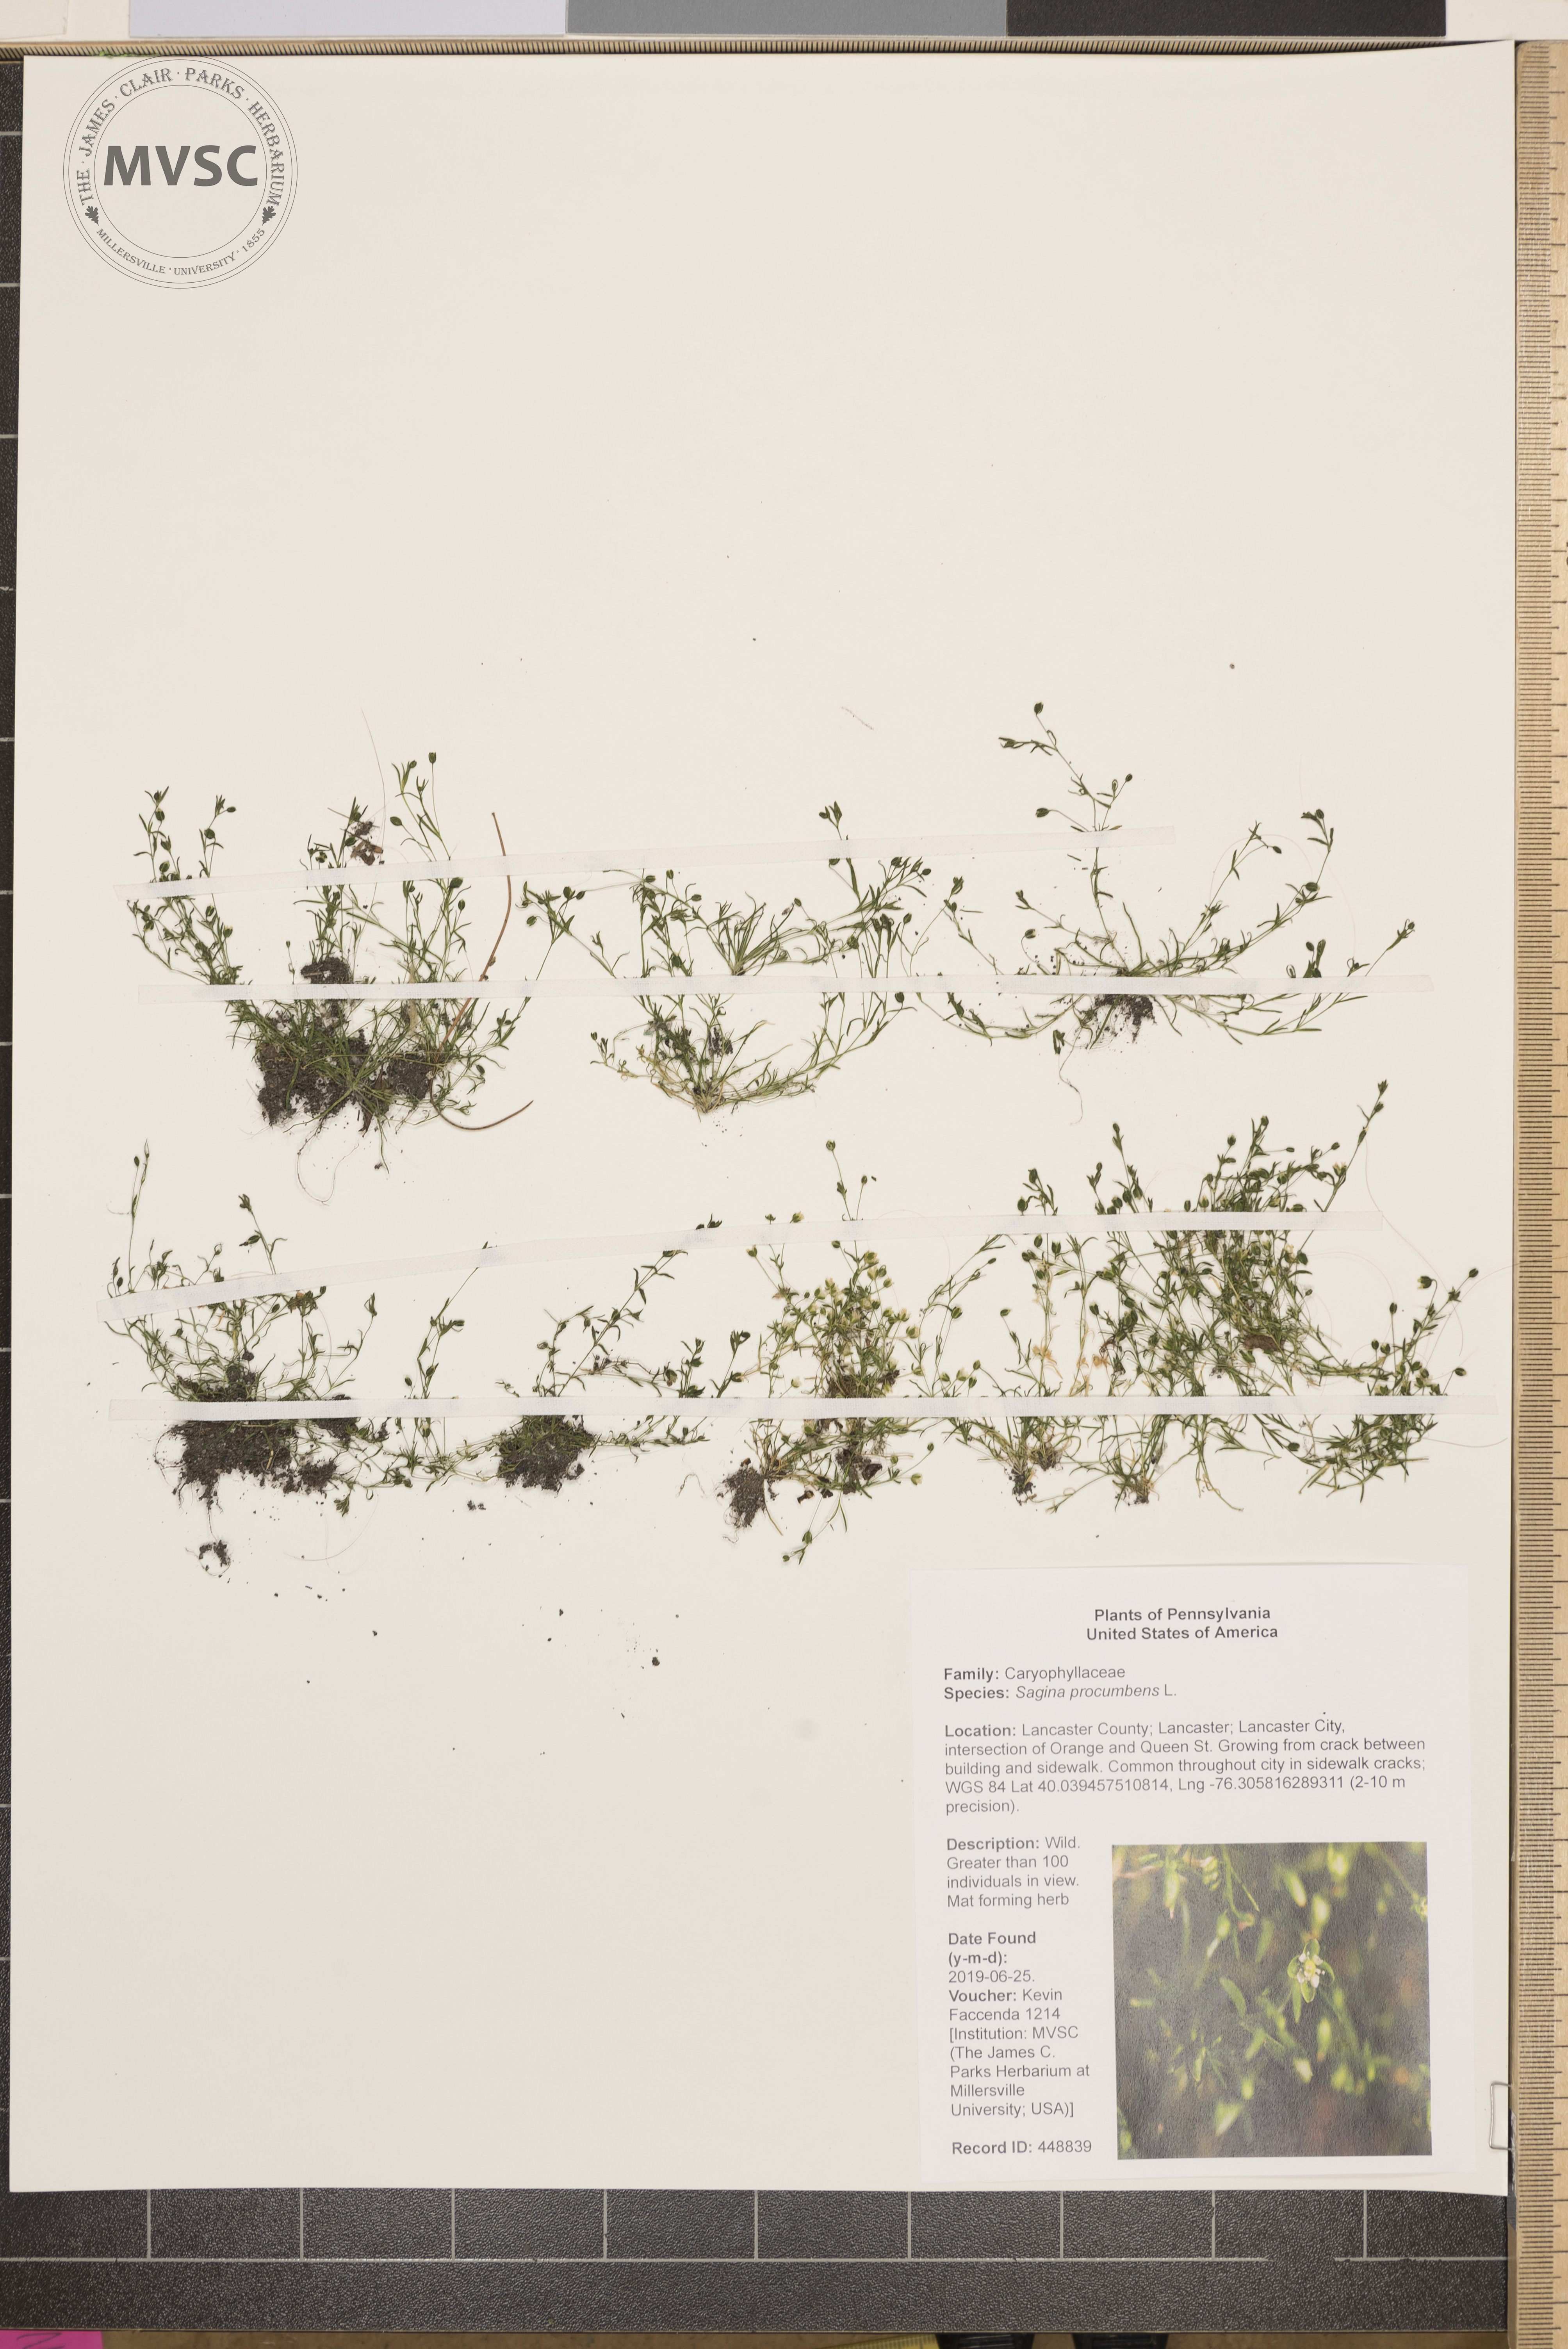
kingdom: Plantae
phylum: Tracheophyta
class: Magnoliopsida
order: Caryophyllales
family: Caryophyllaceae
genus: Sagina
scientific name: Sagina procumbens
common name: Procumbent pearlwort
